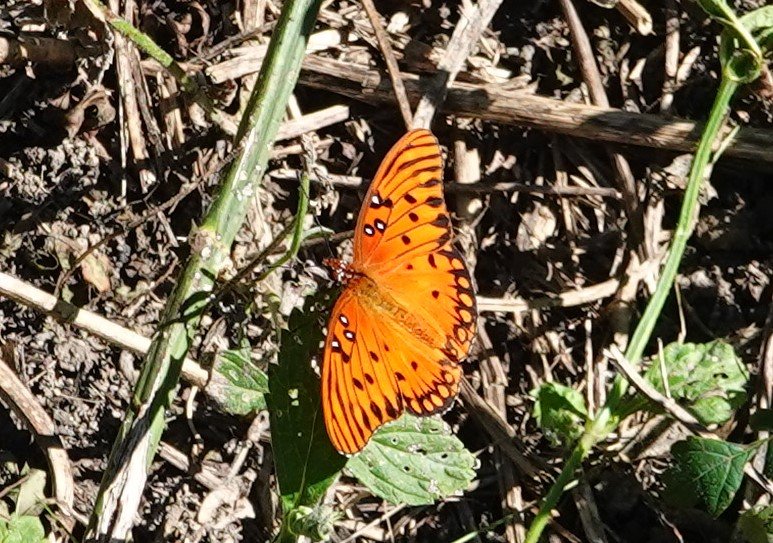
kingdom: Animalia
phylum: Arthropoda
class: Insecta
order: Lepidoptera
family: Nymphalidae
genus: Dione
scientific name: Dione vanillae
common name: Gulf Fritillary
